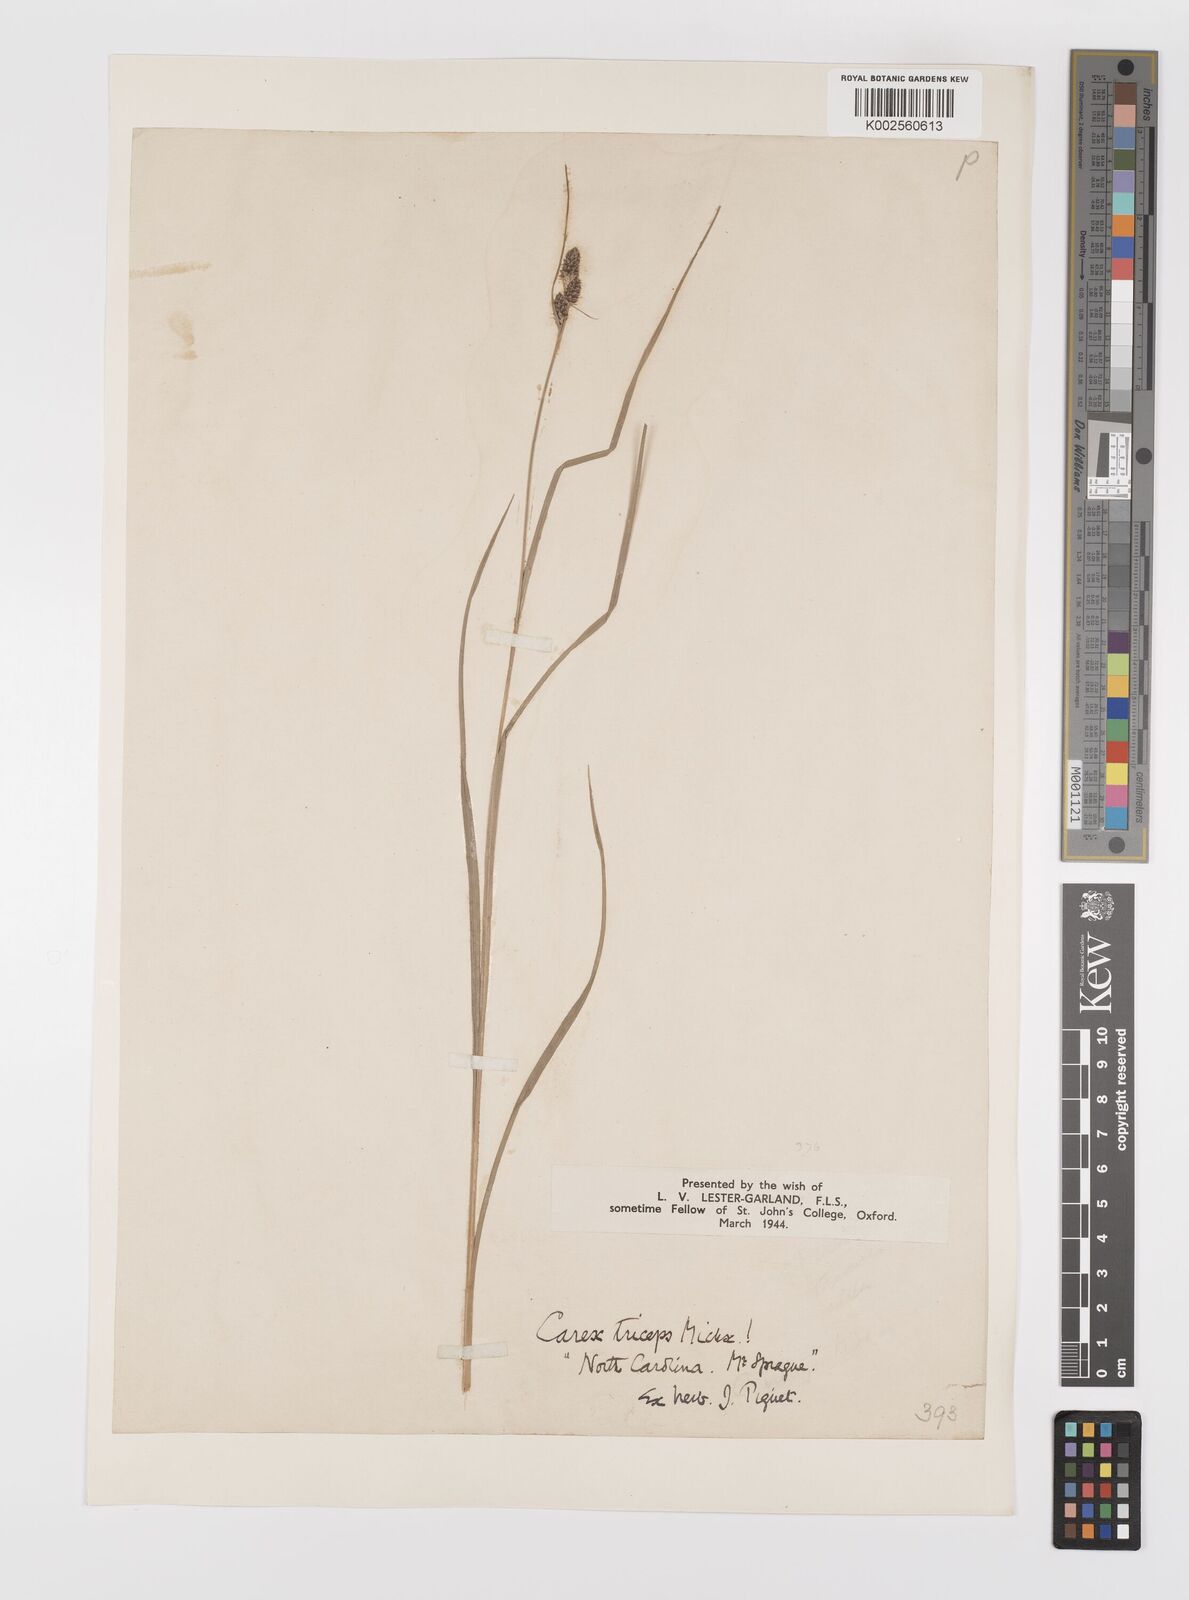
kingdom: Plantae
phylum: Tracheophyta
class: Liliopsida
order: Poales
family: Cyperaceae
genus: Carex
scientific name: Carex complanata
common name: Hirsute sedge
